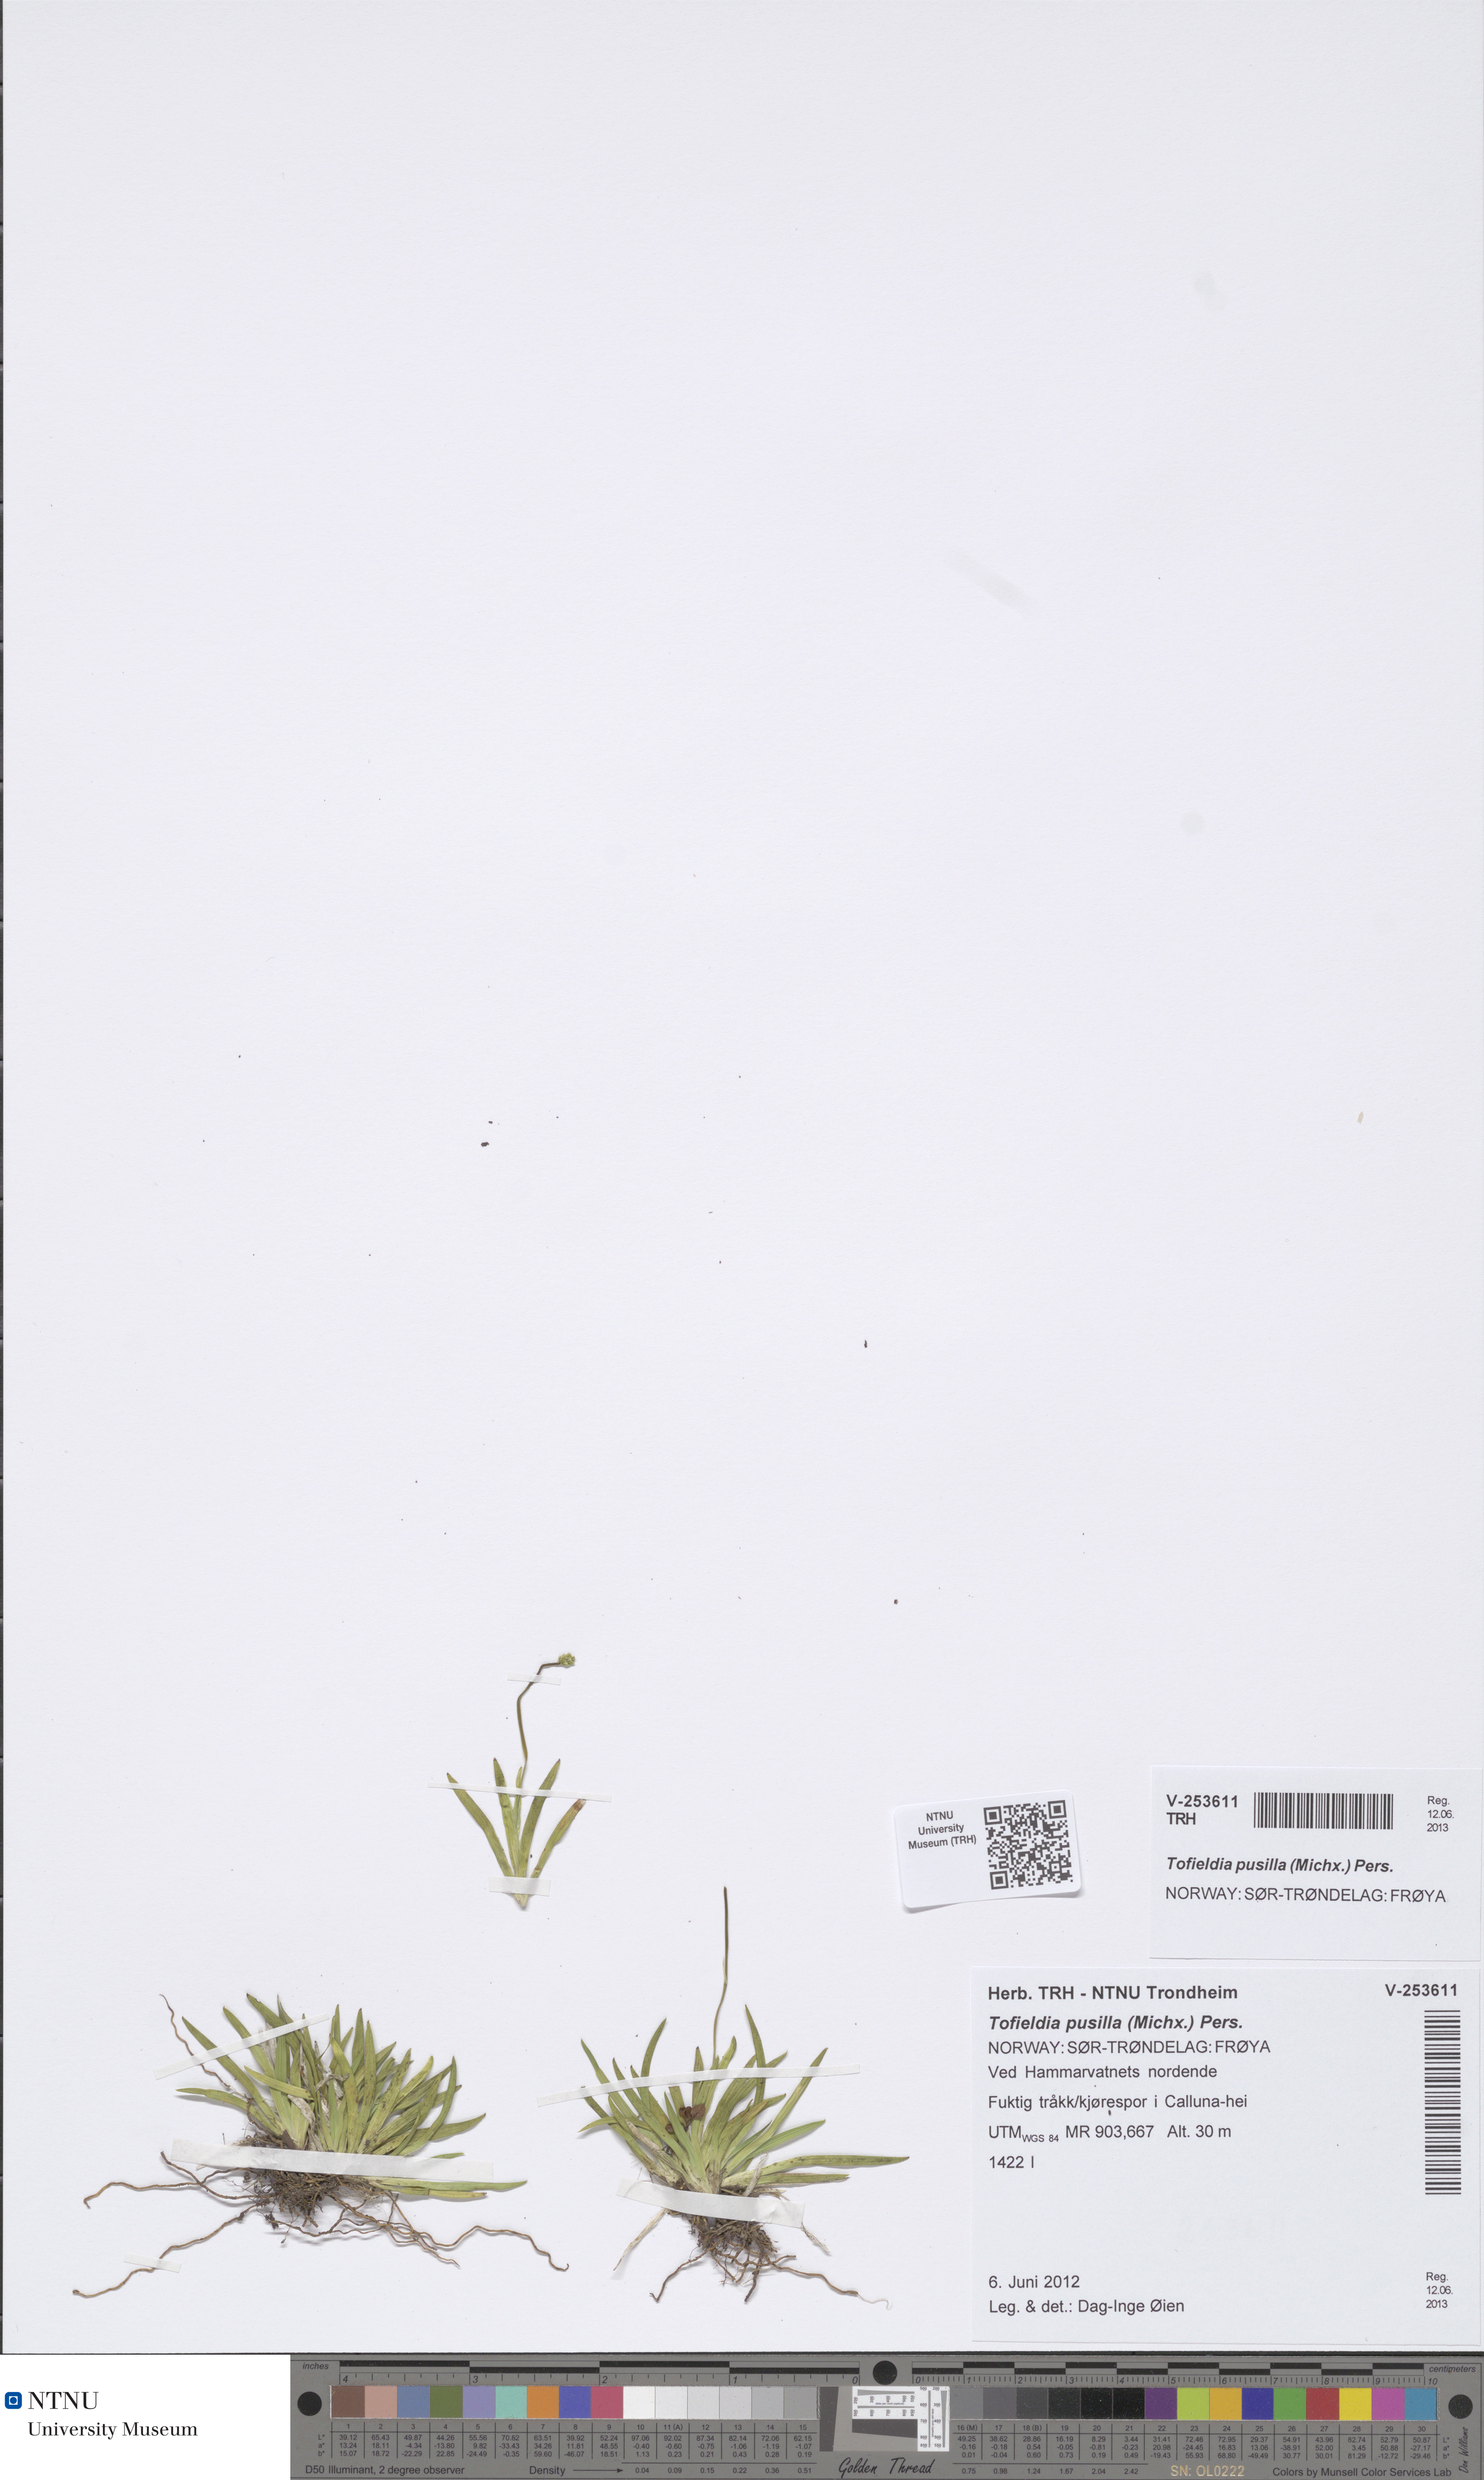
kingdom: Plantae
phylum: Tracheophyta
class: Liliopsida
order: Alismatales
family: Tofieldiaceae
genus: Tofieldia
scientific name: Tofieldia pusilla
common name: Scottish false asphodel
